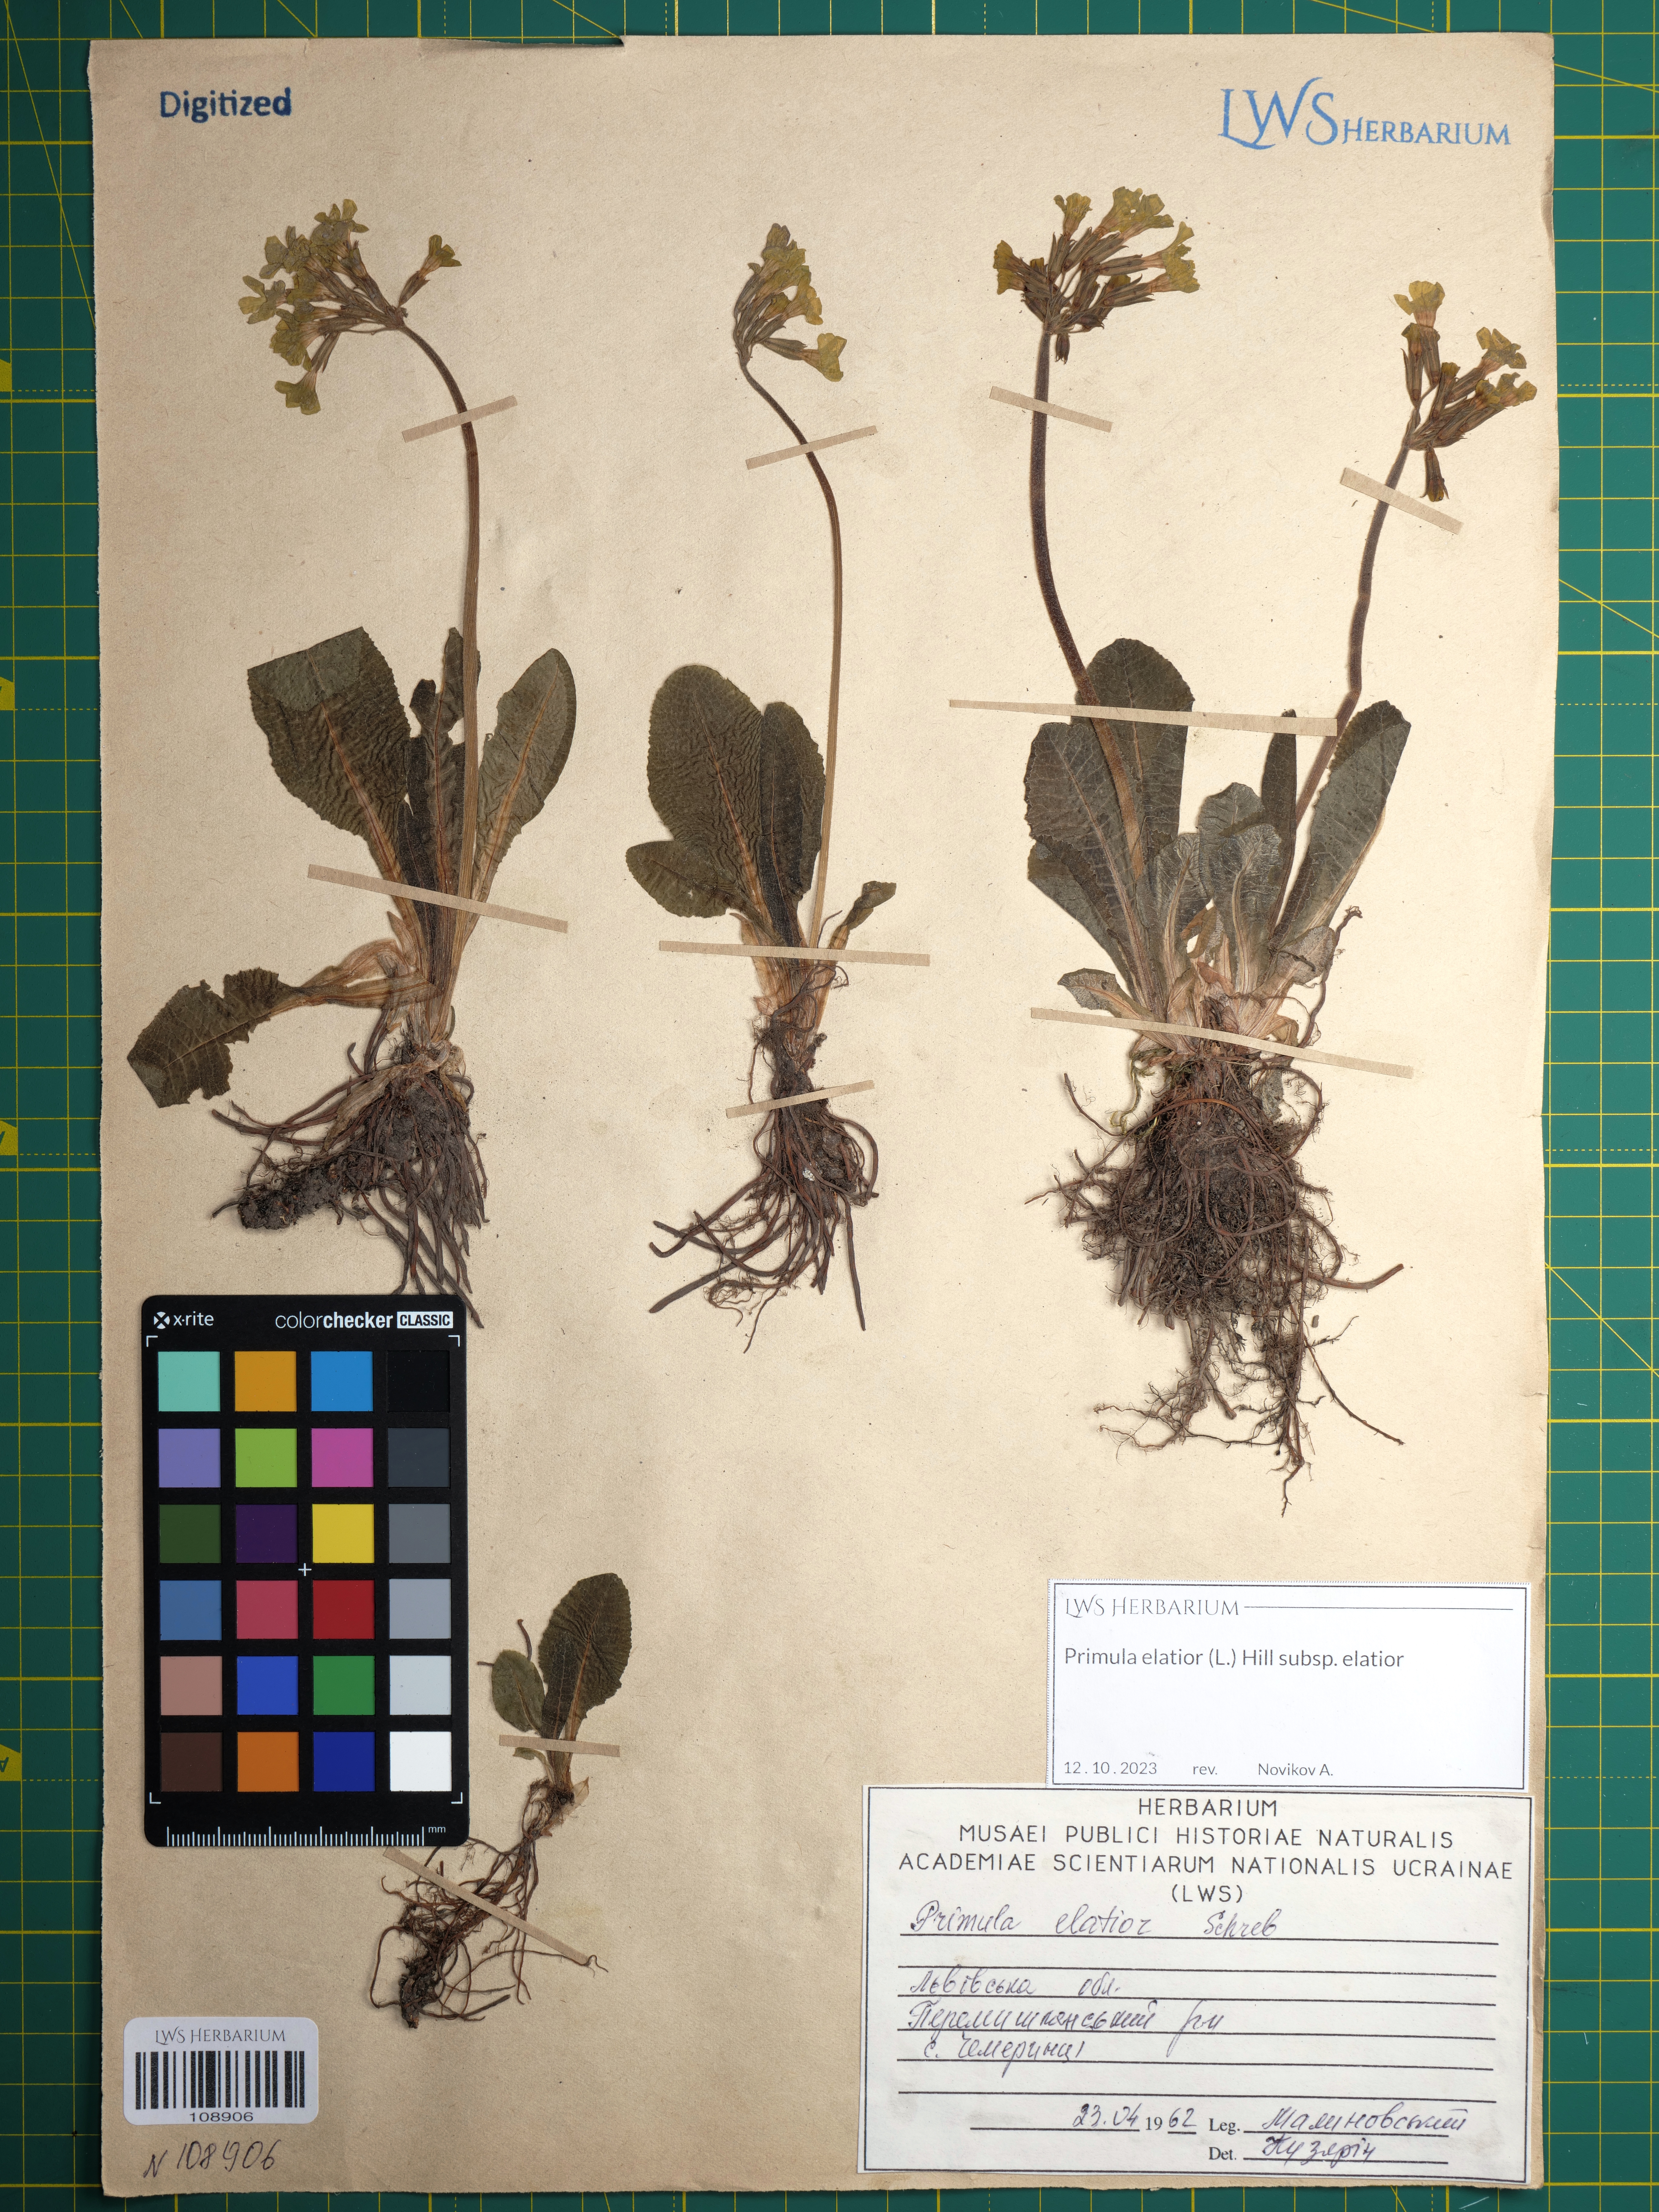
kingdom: Plantae
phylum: Tracheophyta
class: Magnoliopsida
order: Ericales
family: Primulaceae
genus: Primula
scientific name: Primula elatior
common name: Oxlip
